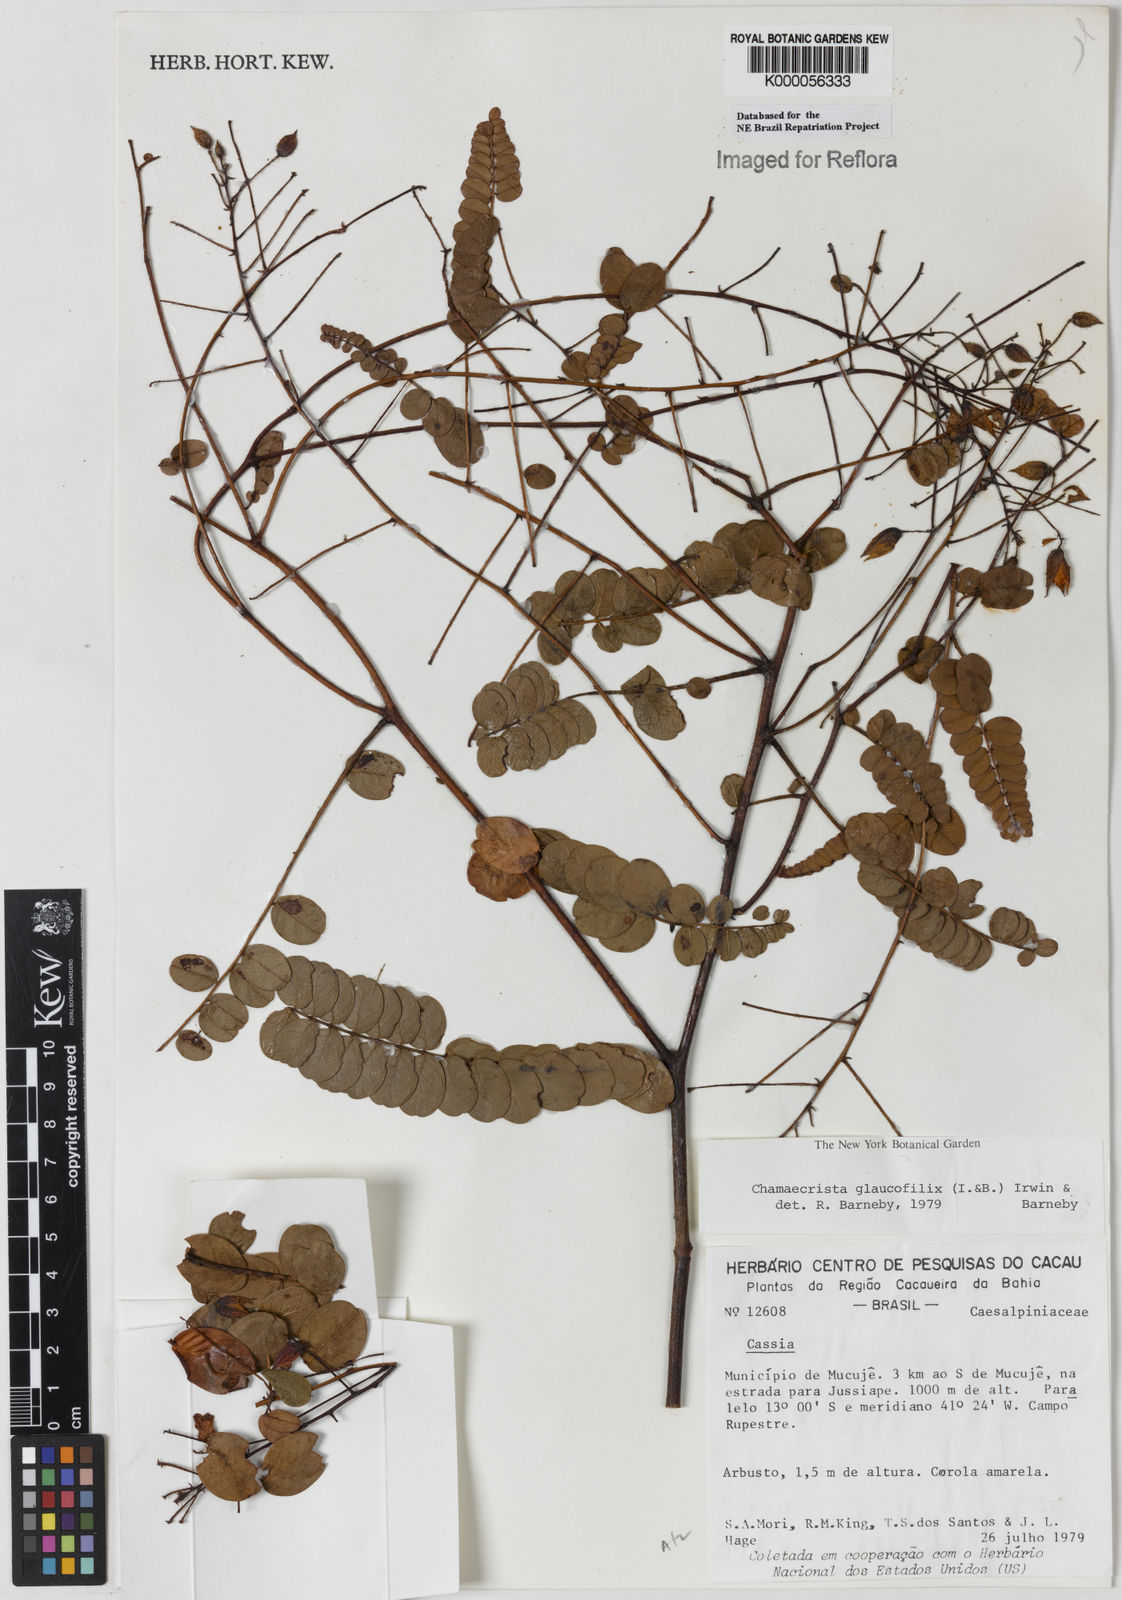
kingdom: Plantae
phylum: Tracheophyta
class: Magnoliopsida
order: Fabales
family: Fabaceae
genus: Chamaecrista
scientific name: Chamaecrista glaucofilix
